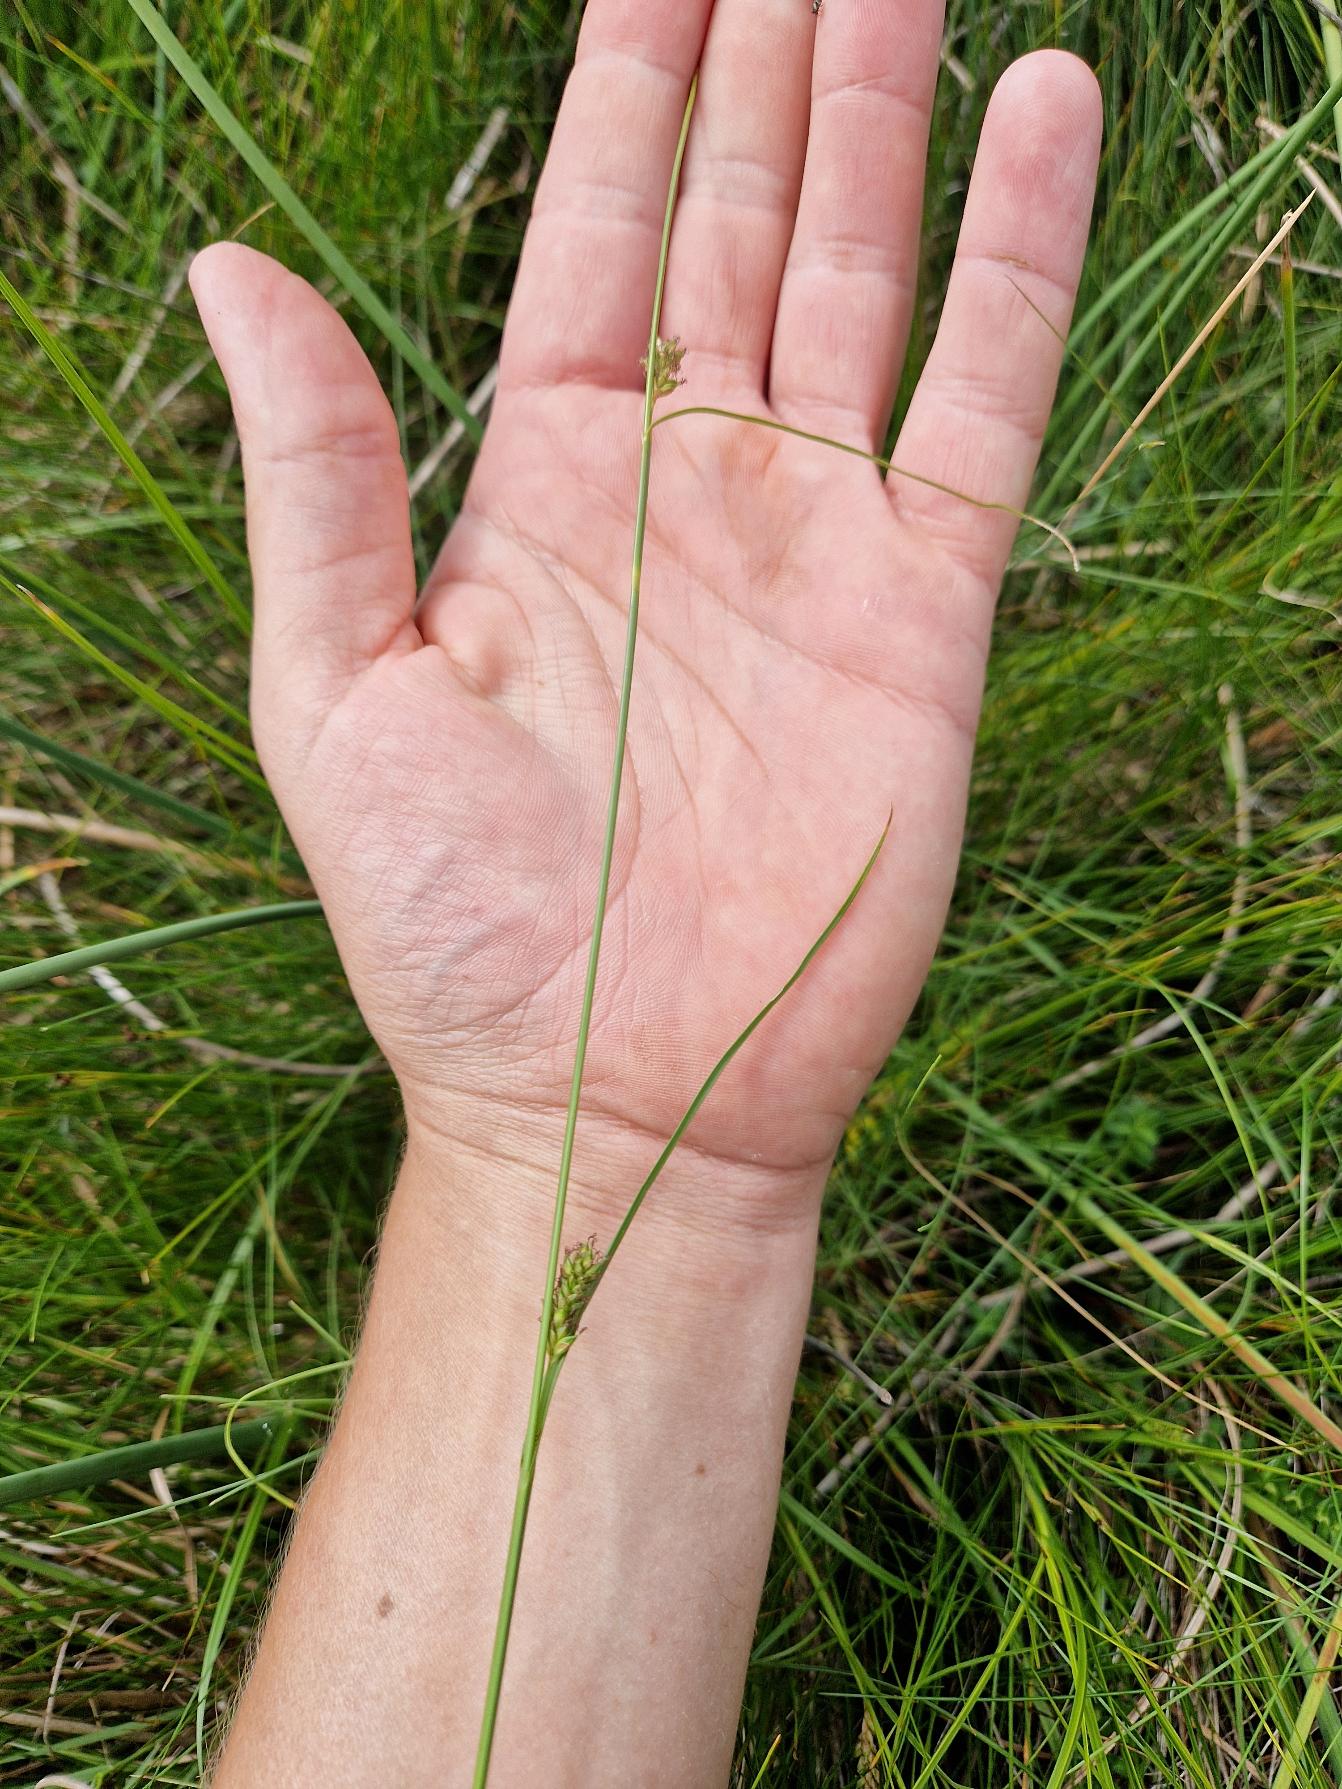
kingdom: Plantae
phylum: Tracheophyta
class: Liliopsida
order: Poales
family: Cyperaceae
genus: Carex
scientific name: Carex distans
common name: Fjernakset star
